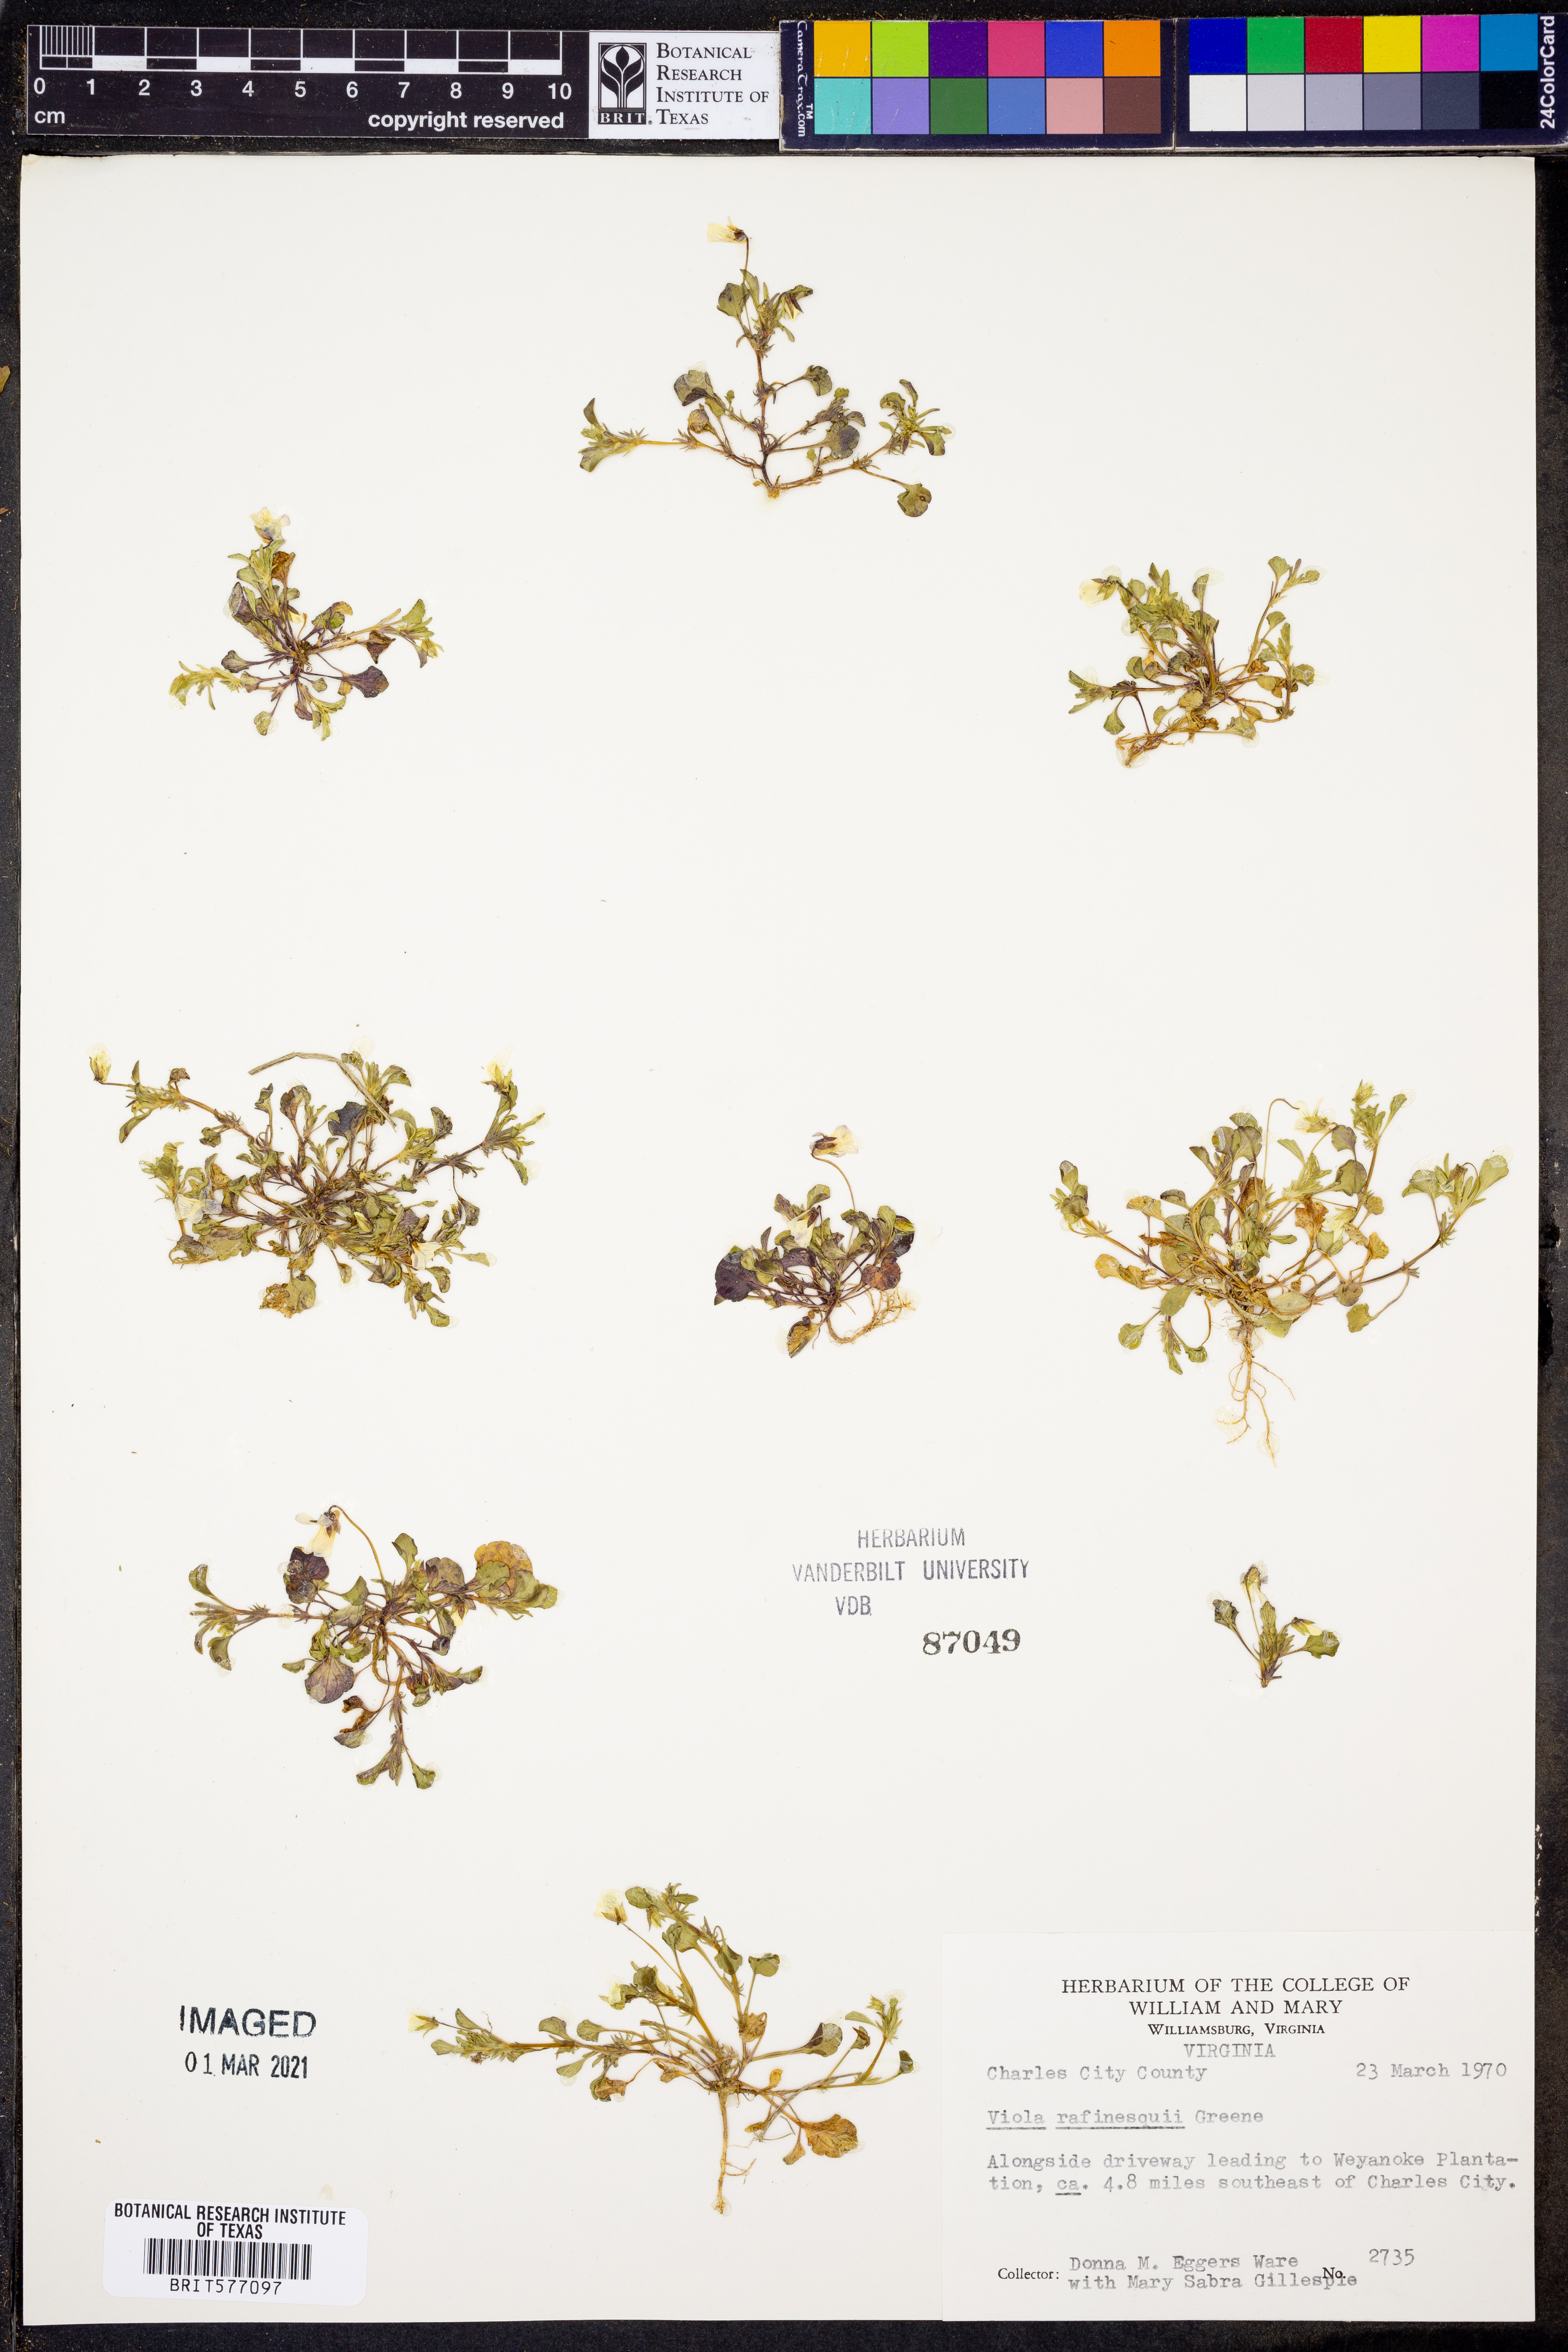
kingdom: Plantae
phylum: Tracheophyta
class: Magnoliopsida
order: Malpighiales
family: Violaceae
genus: Viola
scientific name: Viola rafinesquei
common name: American field pansy
